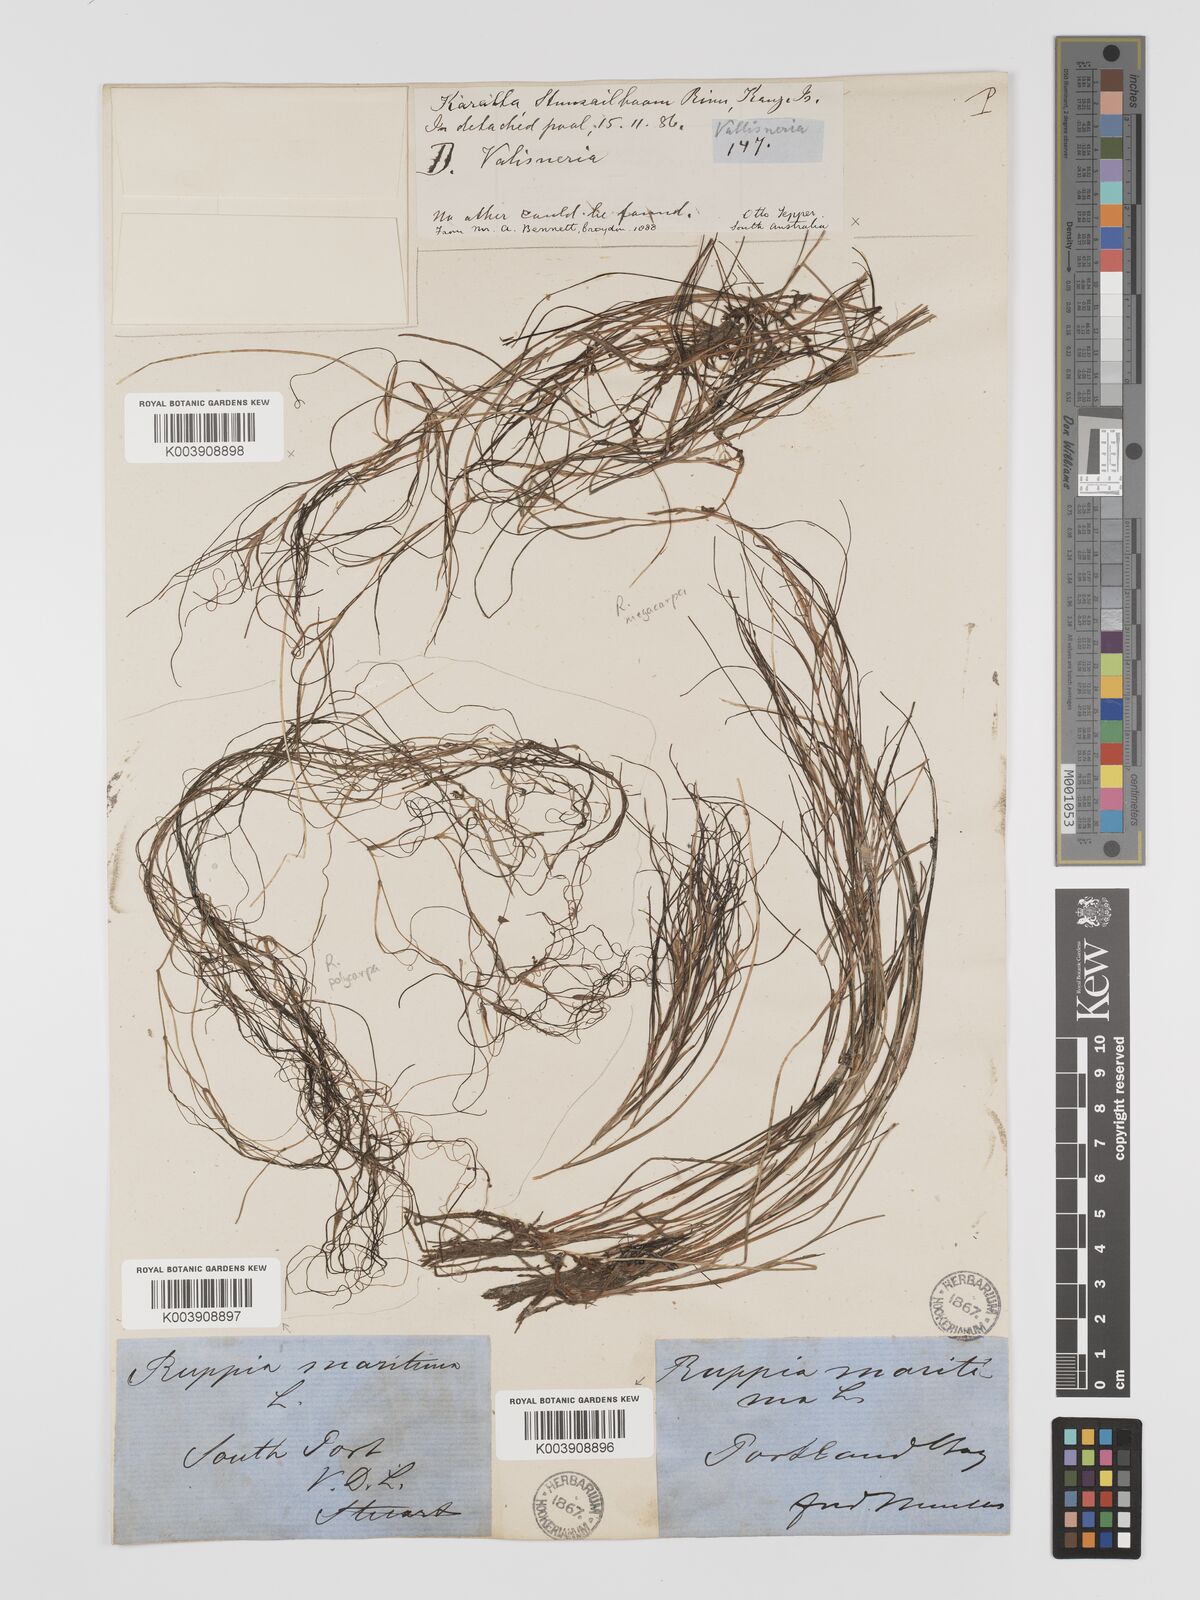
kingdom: Plantae
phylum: Tracheophyta
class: Liliopsida
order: Alismatales
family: Ruppiaceae
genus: Ruppia
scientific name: Ruppia
